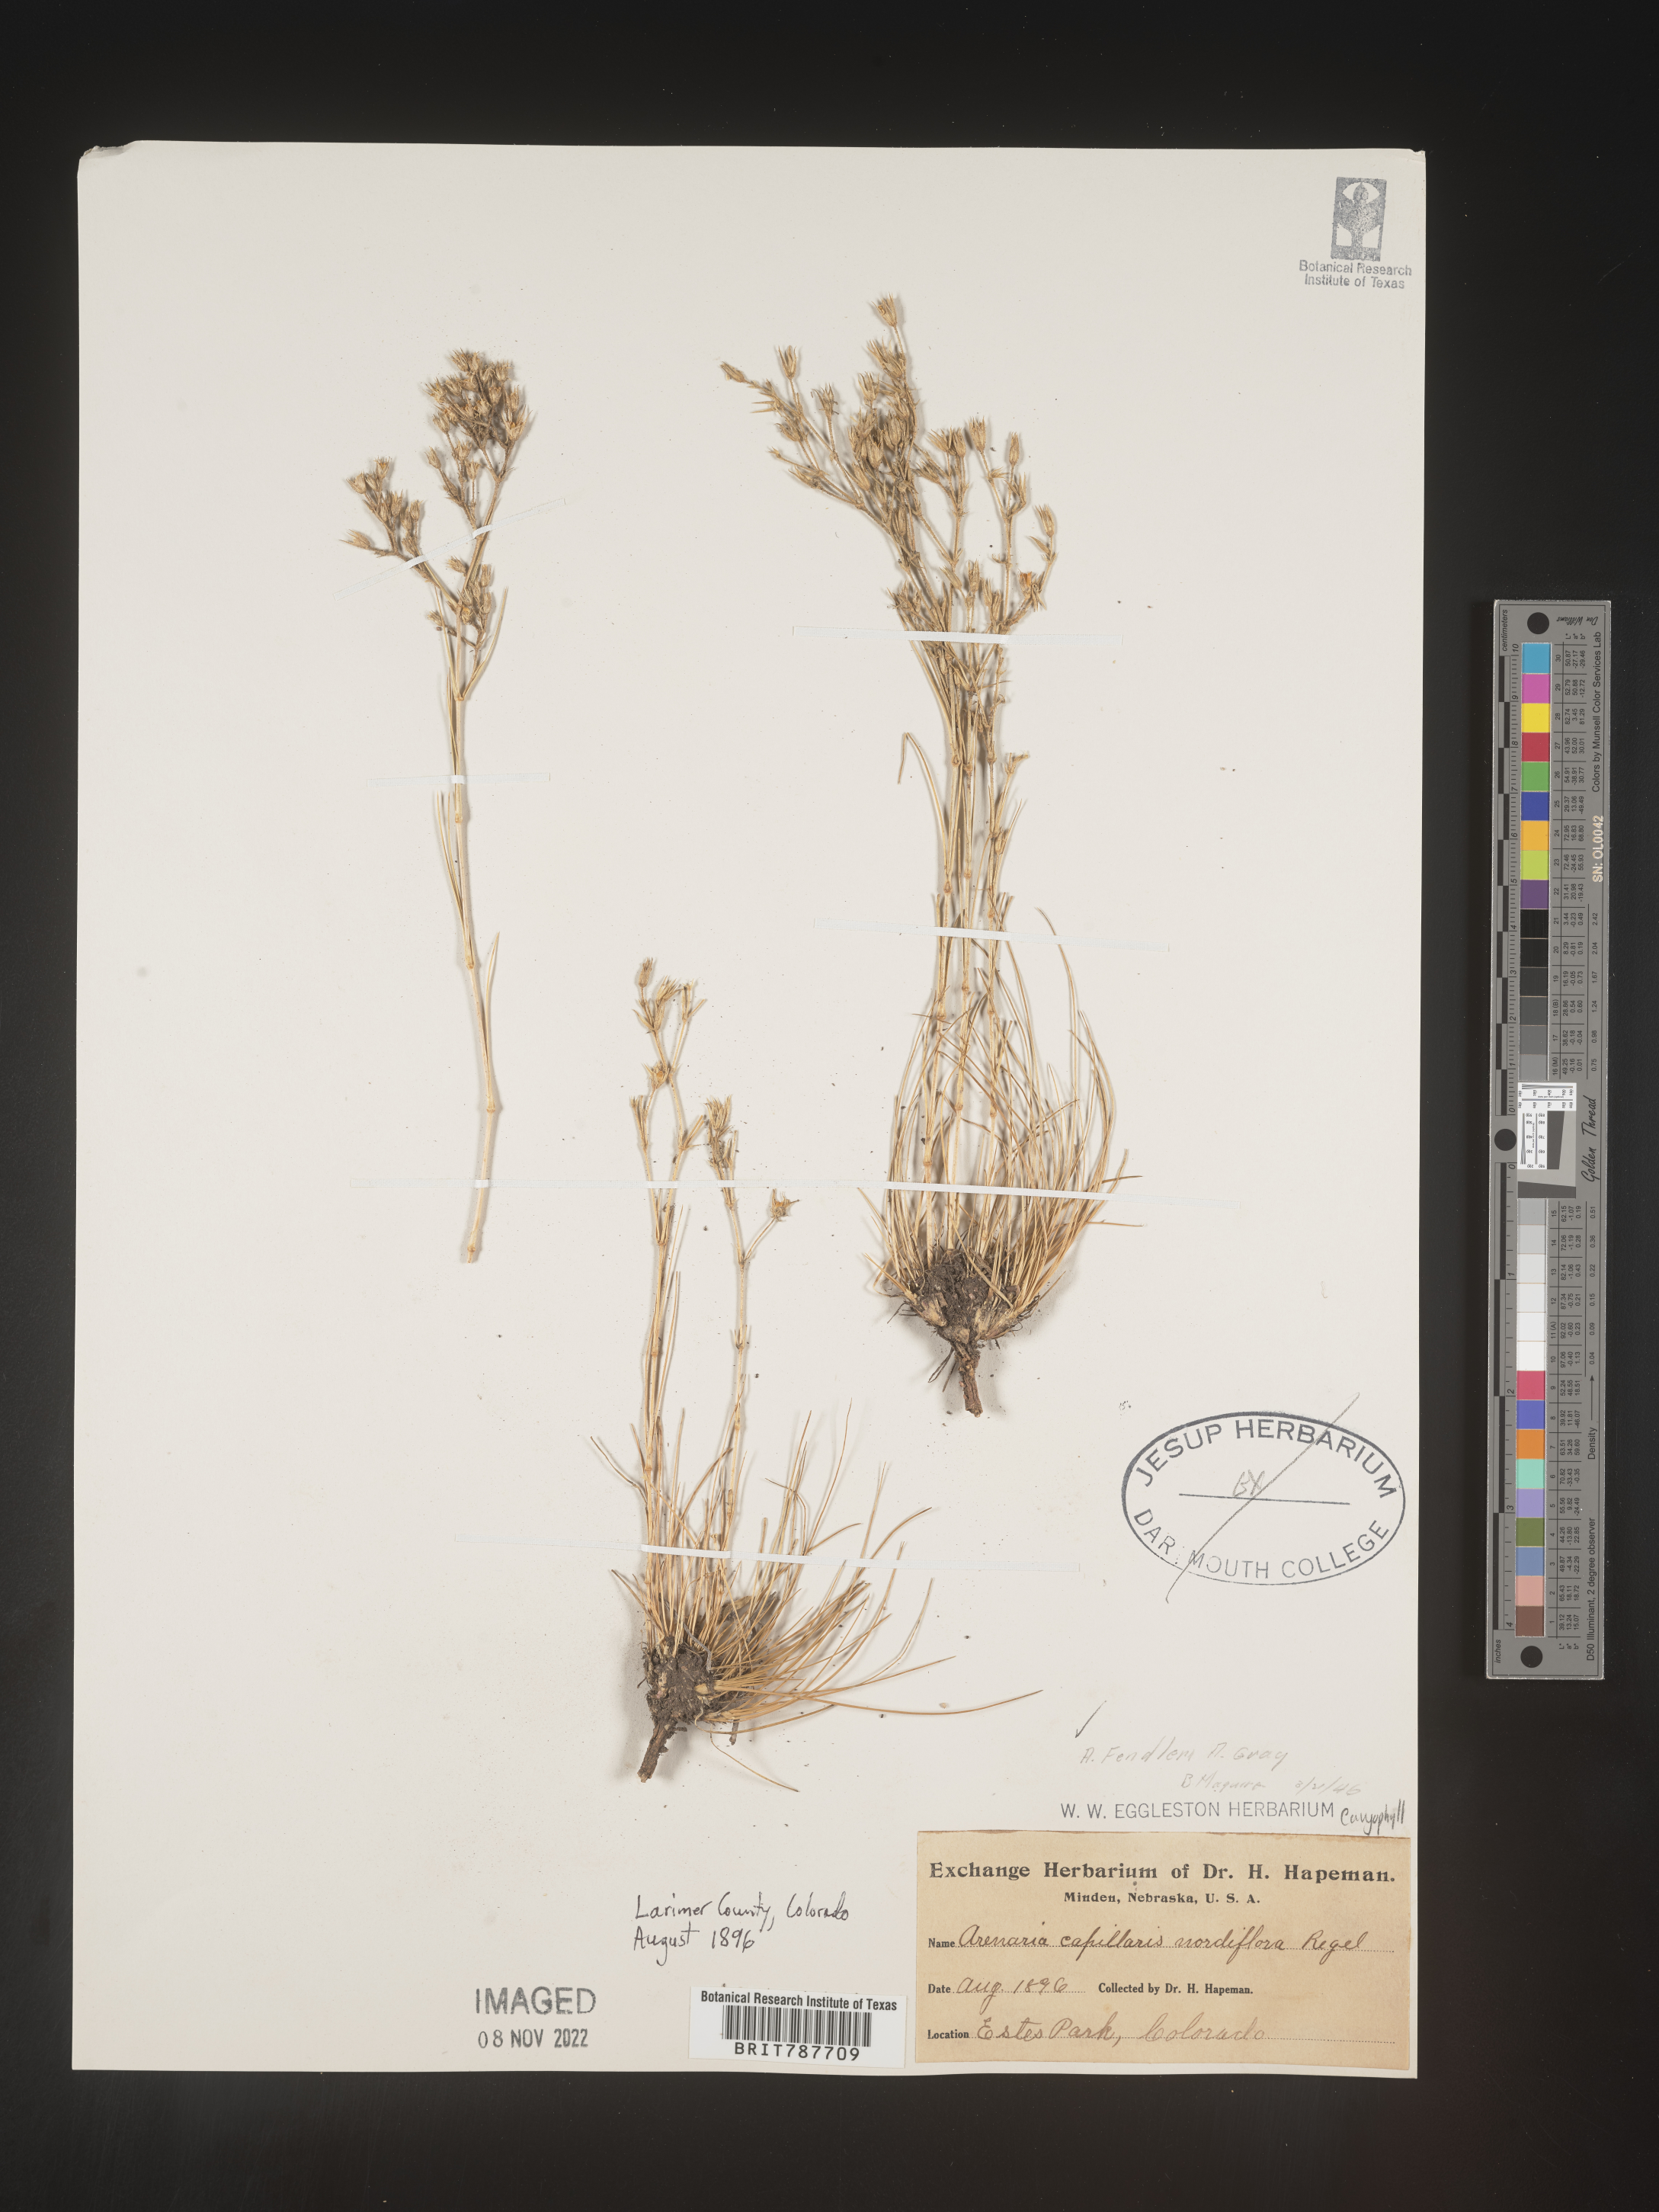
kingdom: Plantae
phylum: Tracheophyta
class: Magnoliopsida
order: Caryophyllales
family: Caryophyllaceae
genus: Arenaria
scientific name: Arenaria
